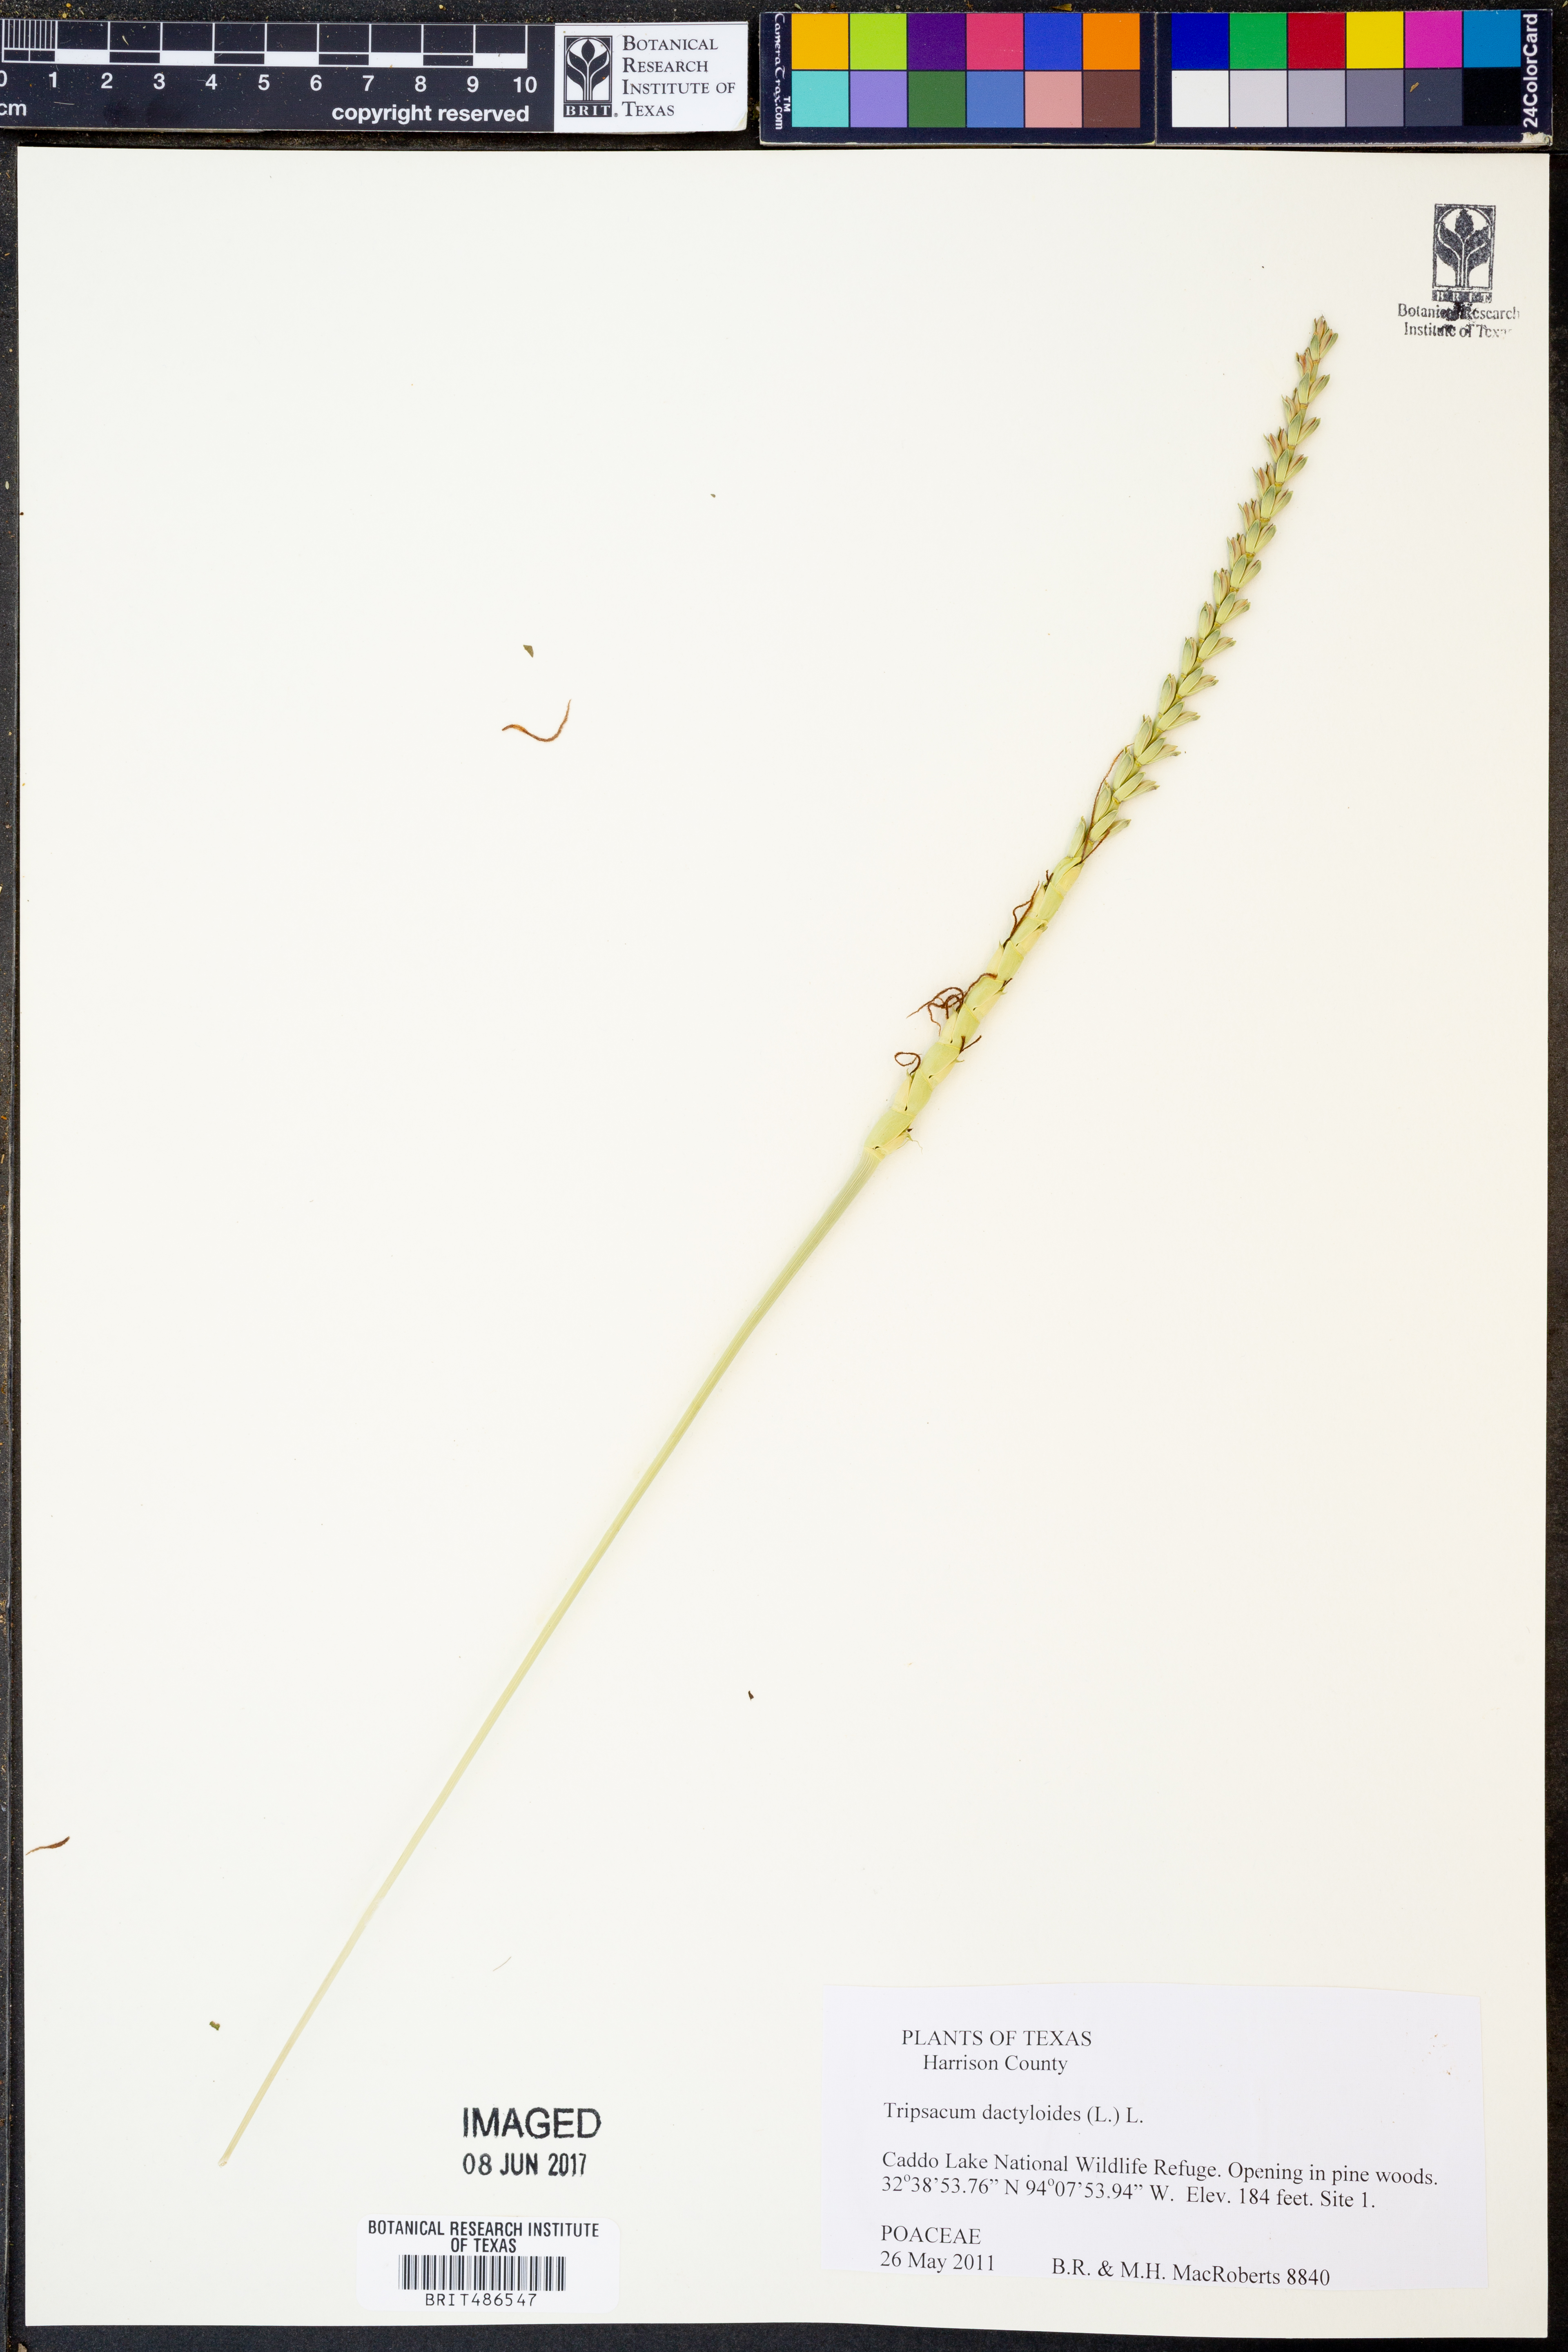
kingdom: Plantae
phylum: Tracheophyta
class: Liliopsida
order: Poales
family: Poaceae
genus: Tripsacum
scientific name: Tripsacum dactyloides
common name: Buffalo-grass
